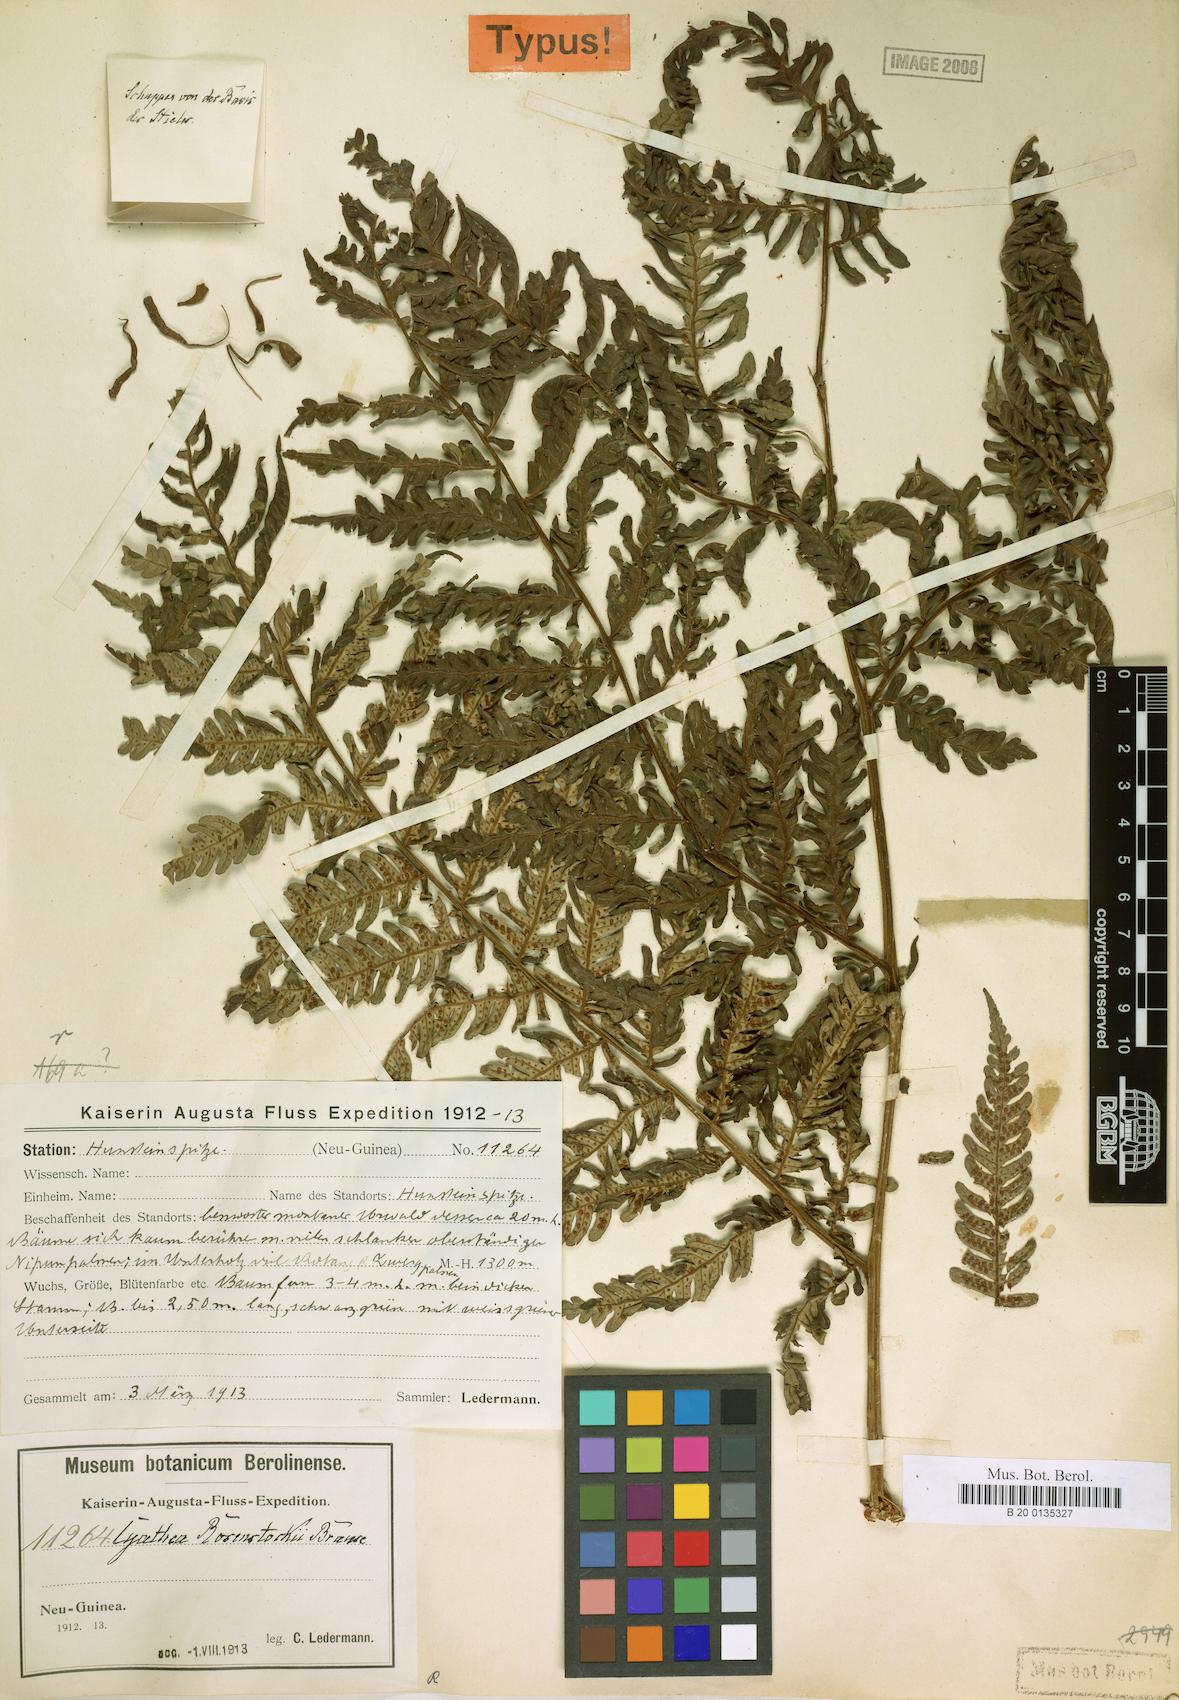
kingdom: Plantae
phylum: Tracheophyta
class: Polypodiopsida
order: Cyatheales
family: Cyatheaceae
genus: Sphaeropteris
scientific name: Sphaeropteris rosenstockii
